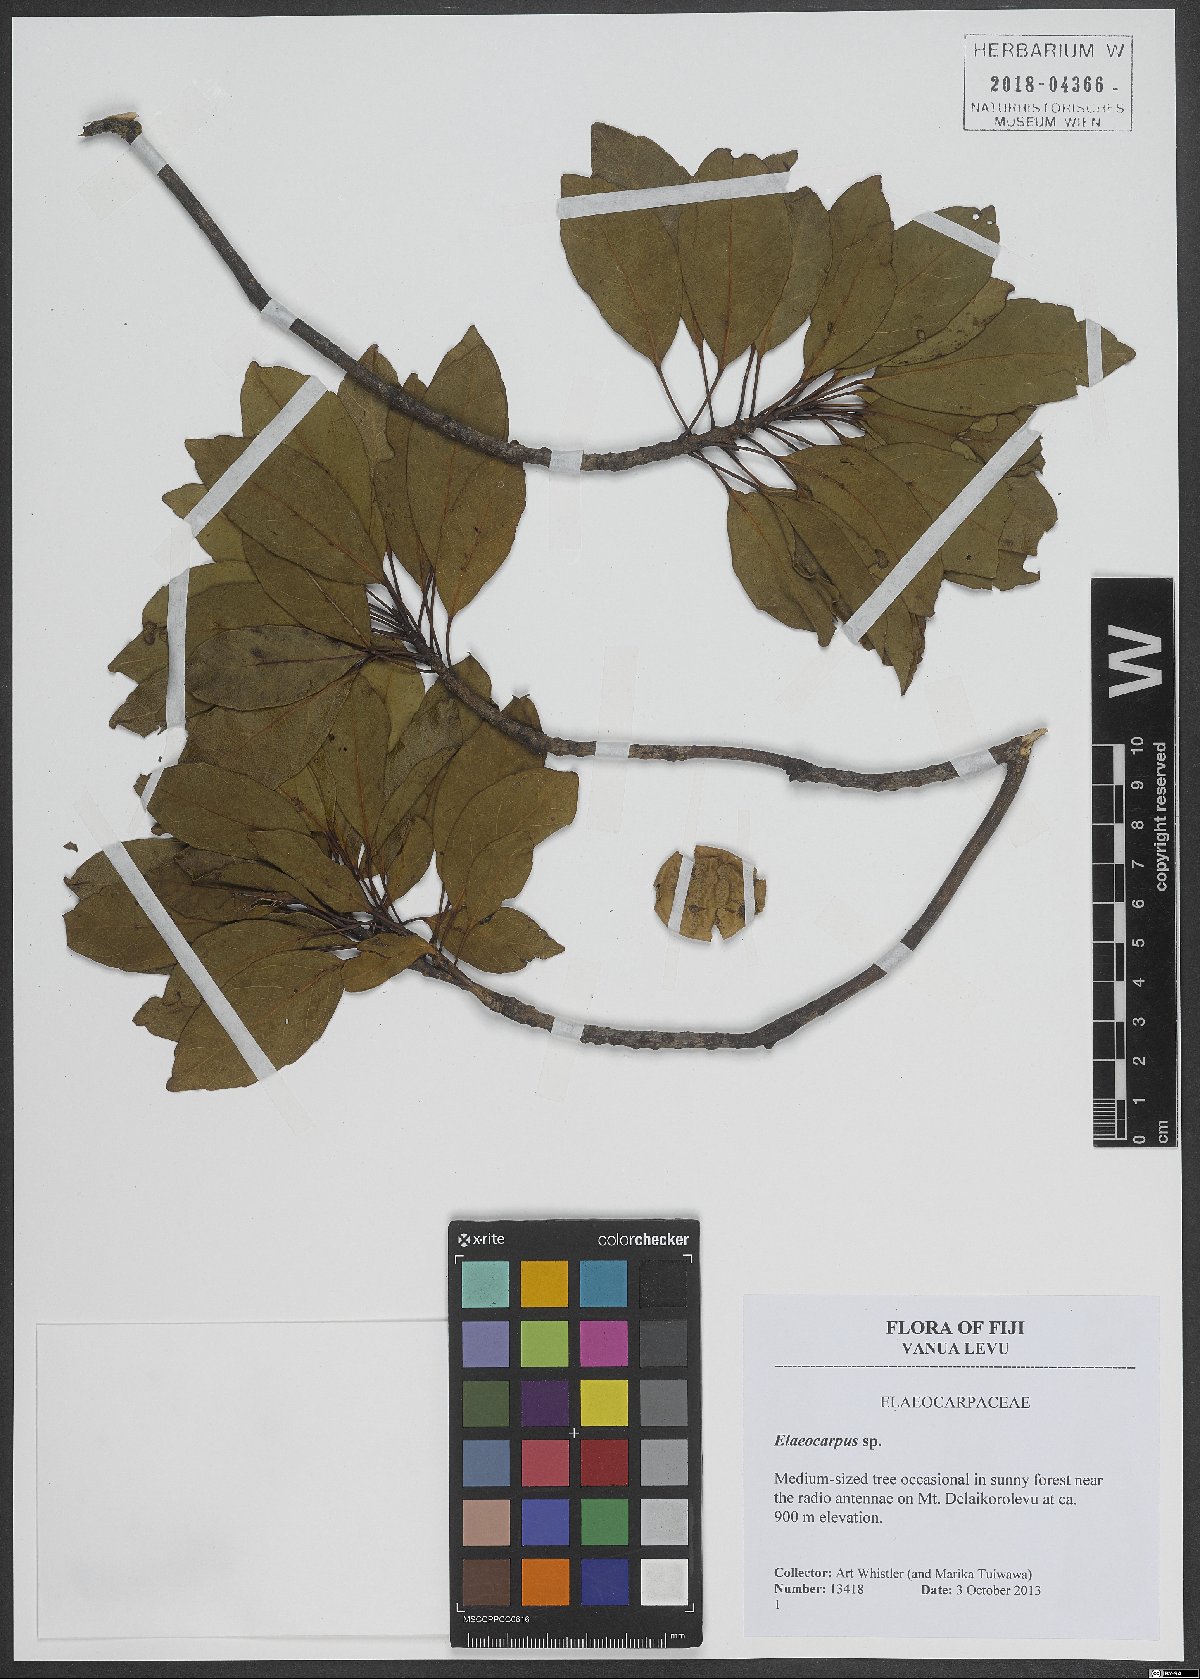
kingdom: Plantae
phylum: Tracheophyta
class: Magnoliopsida
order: Oxalidales
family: Elaeocarpaceae
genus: Elaeocarpus
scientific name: Elaeocarpus
